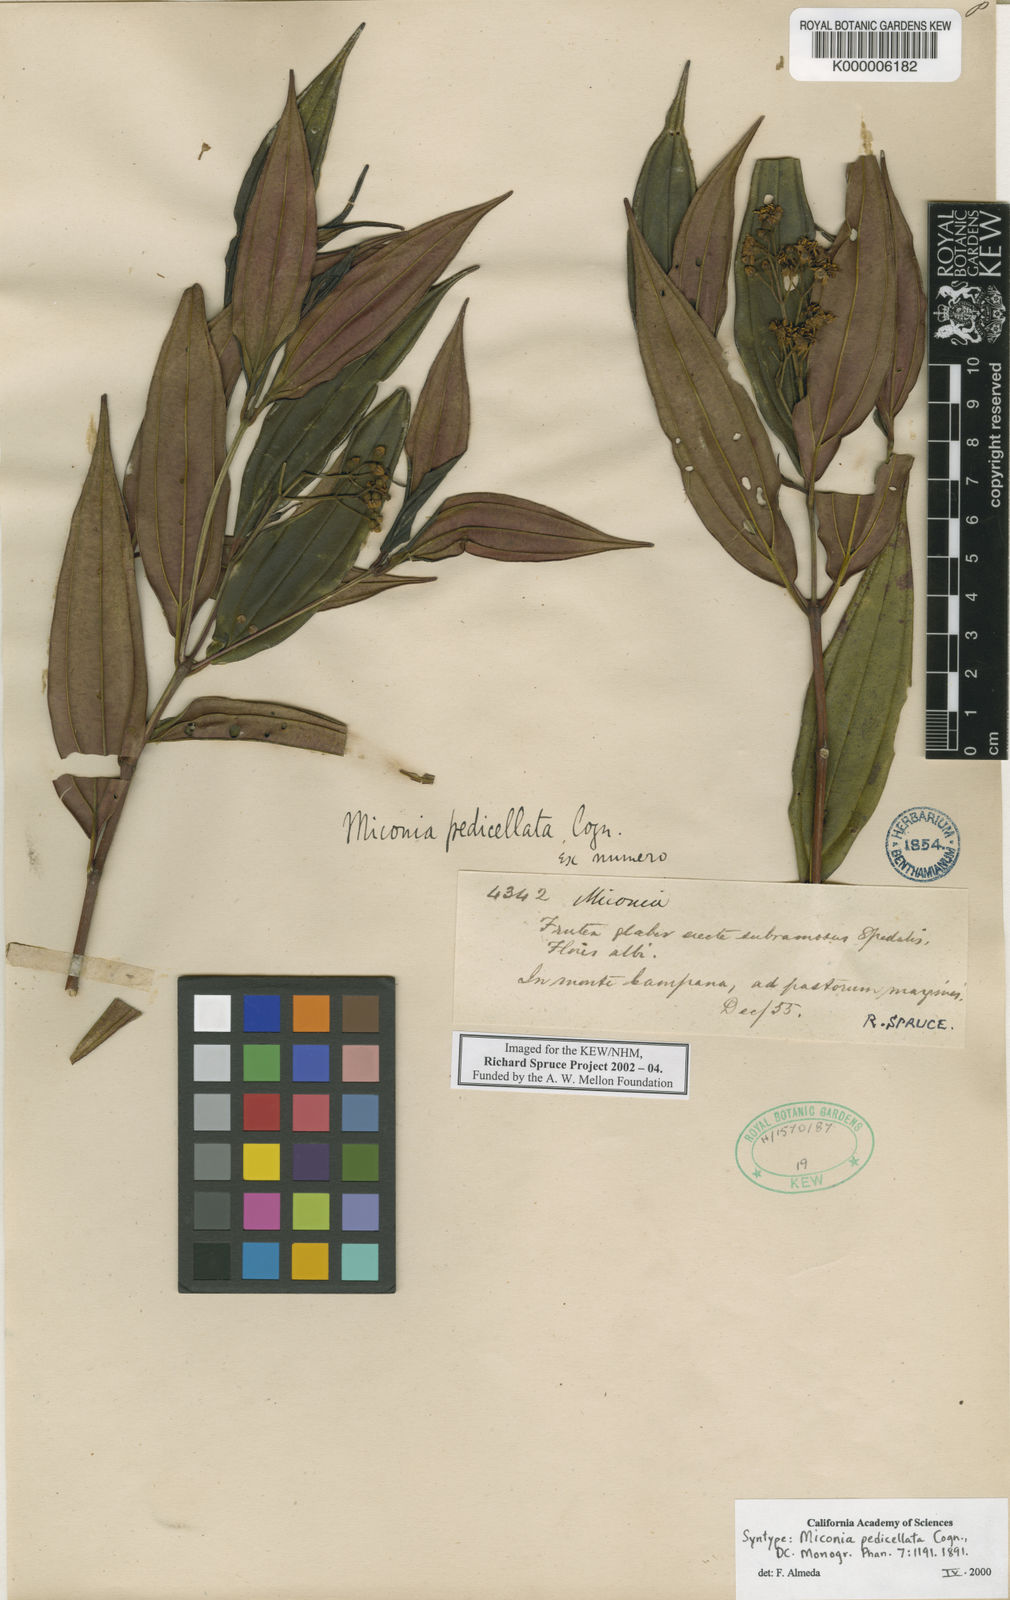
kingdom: Plantae
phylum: Tracheophyta
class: Magnoliopsida
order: Myrtales
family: Melastomataceae
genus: Miconia
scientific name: Miconia pedicellata
